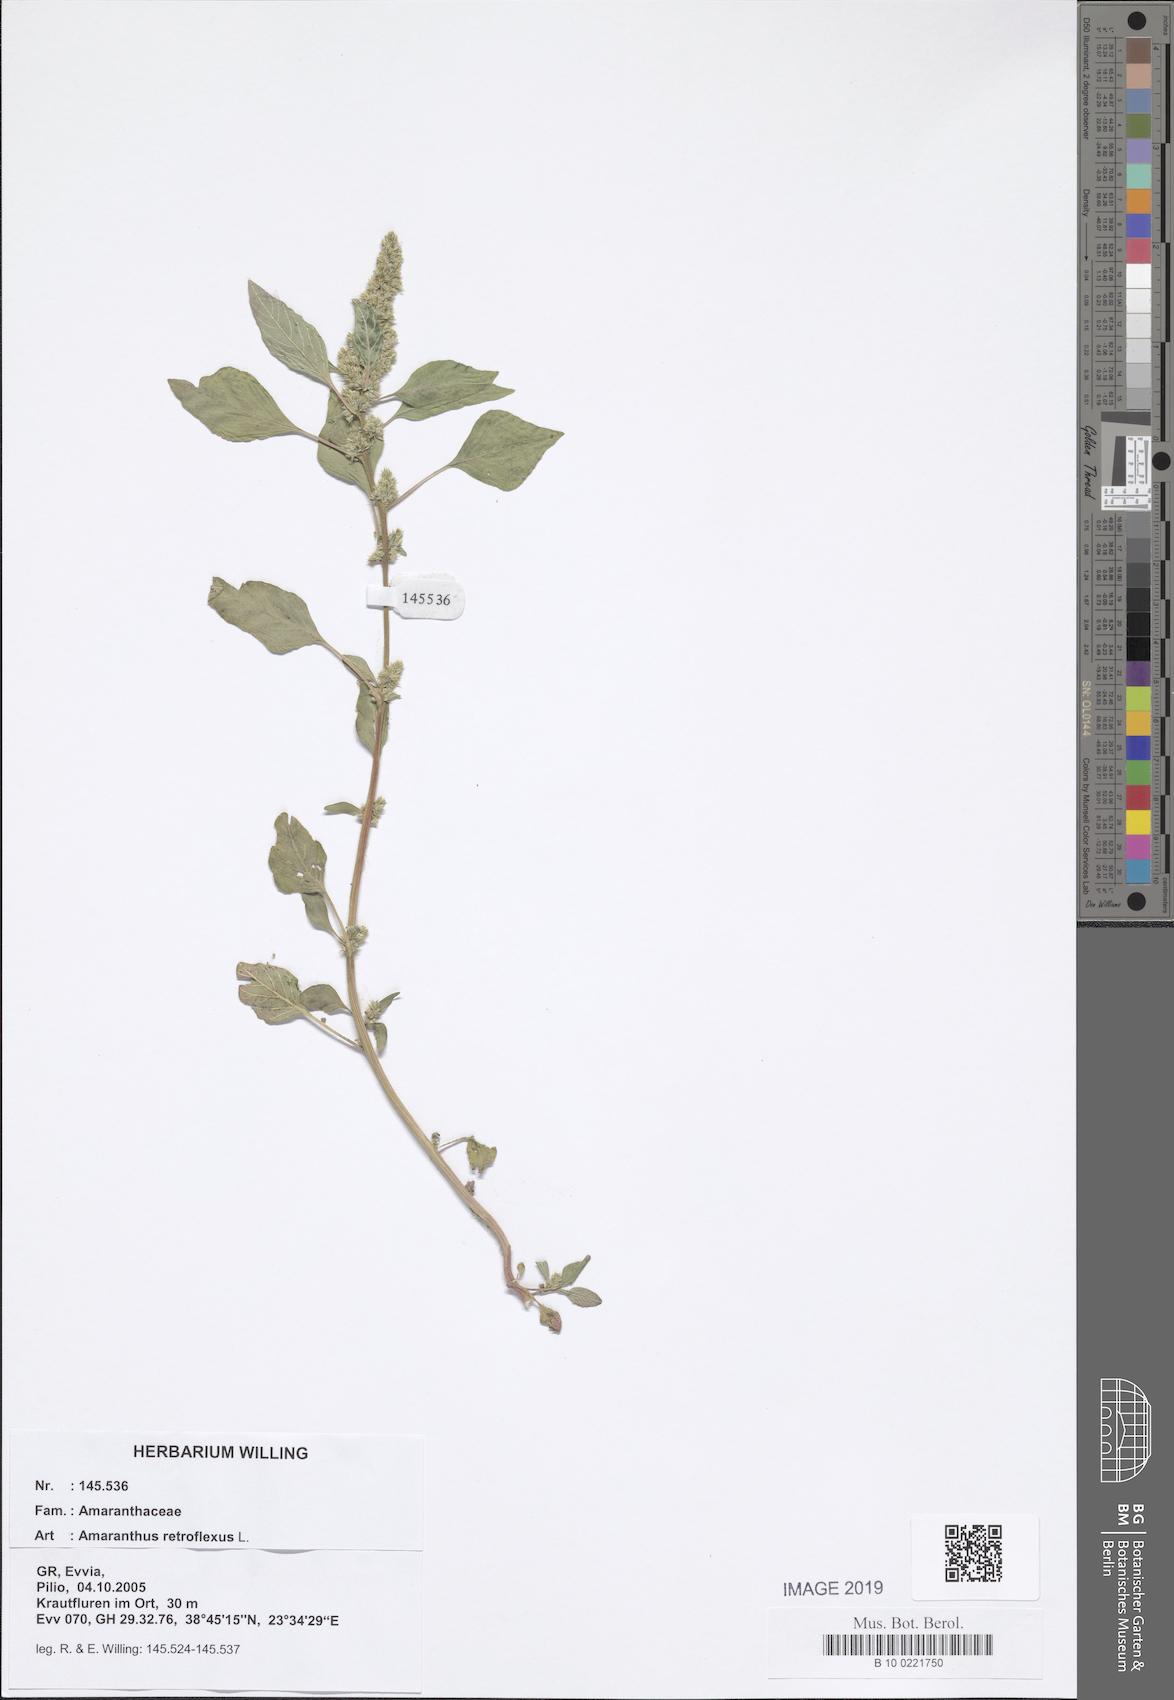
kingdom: Plantae
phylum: Tracheophyta
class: Magnoliopsida
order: Caryophyllales
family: Amaranthaceae
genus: Amaranthus
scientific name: Amaranthus retroflexus
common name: Redroot amaranth
